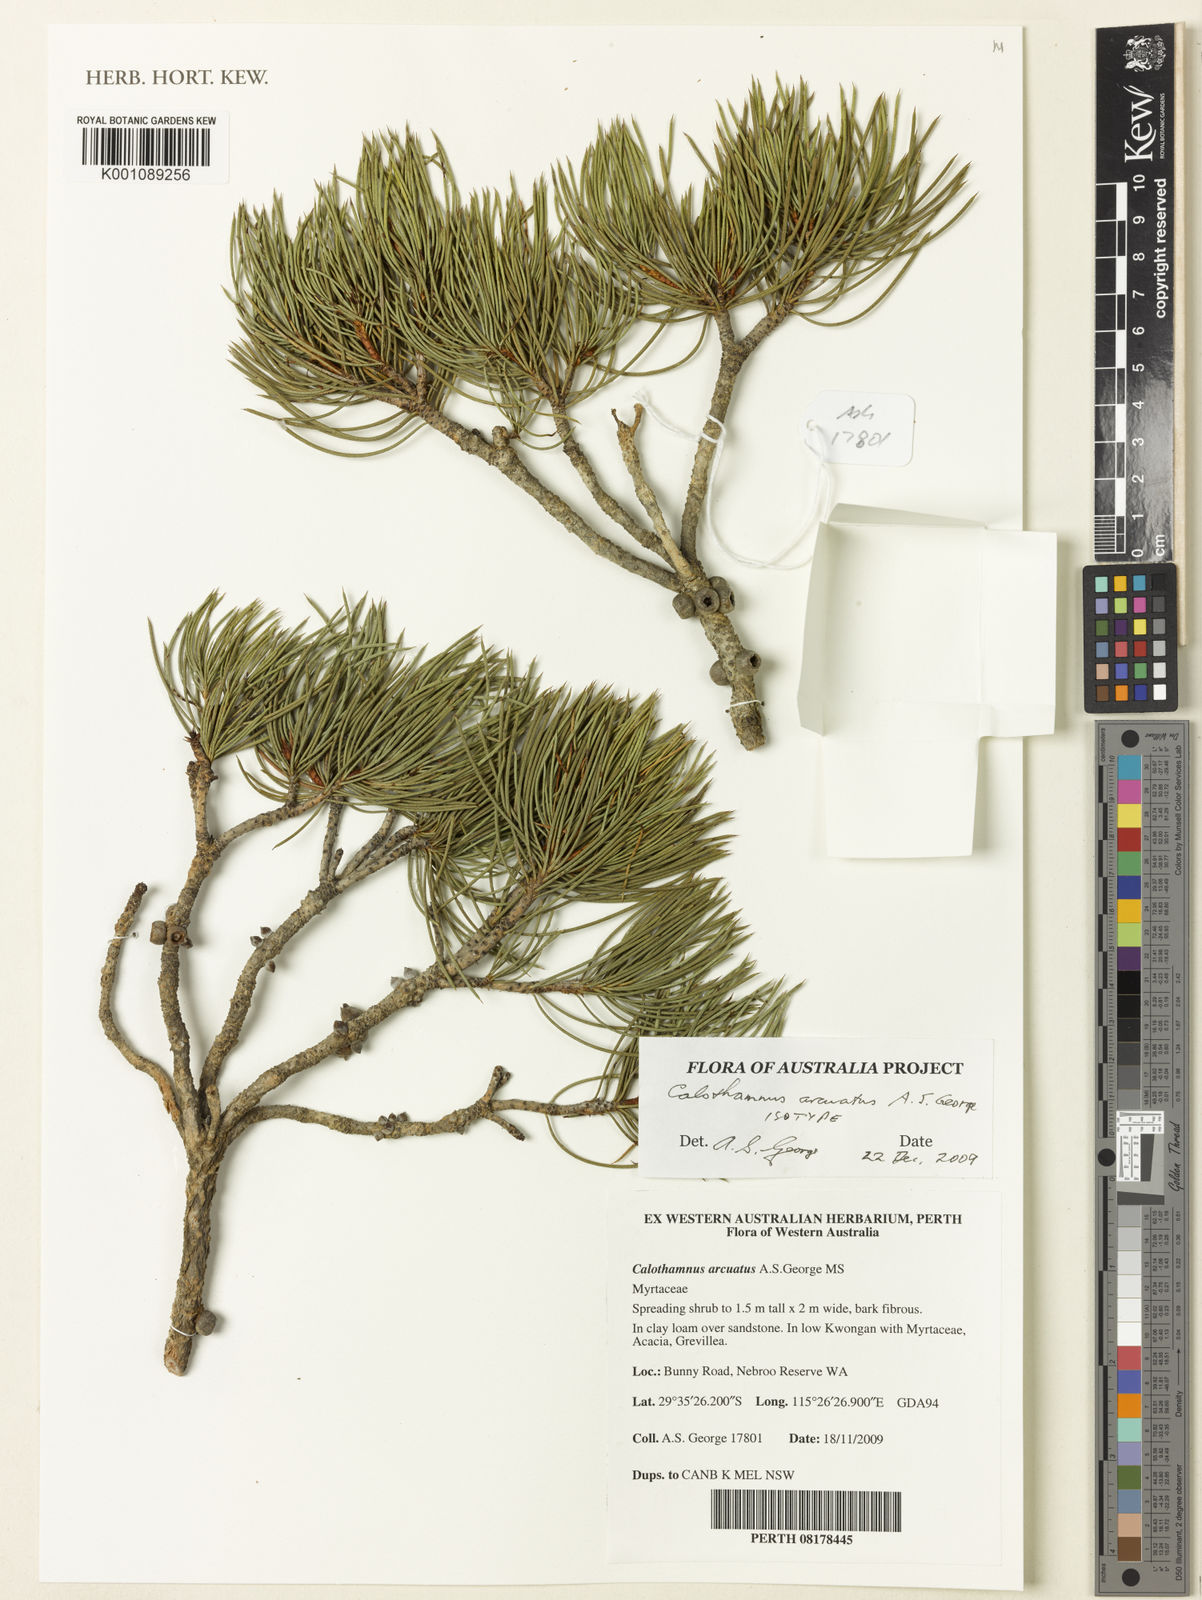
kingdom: Plantae
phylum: Tracheophyta
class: Magnoliopsida
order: Myrtales
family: Myrtaceae
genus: Melaleuca
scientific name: Melaleuca arcuata
